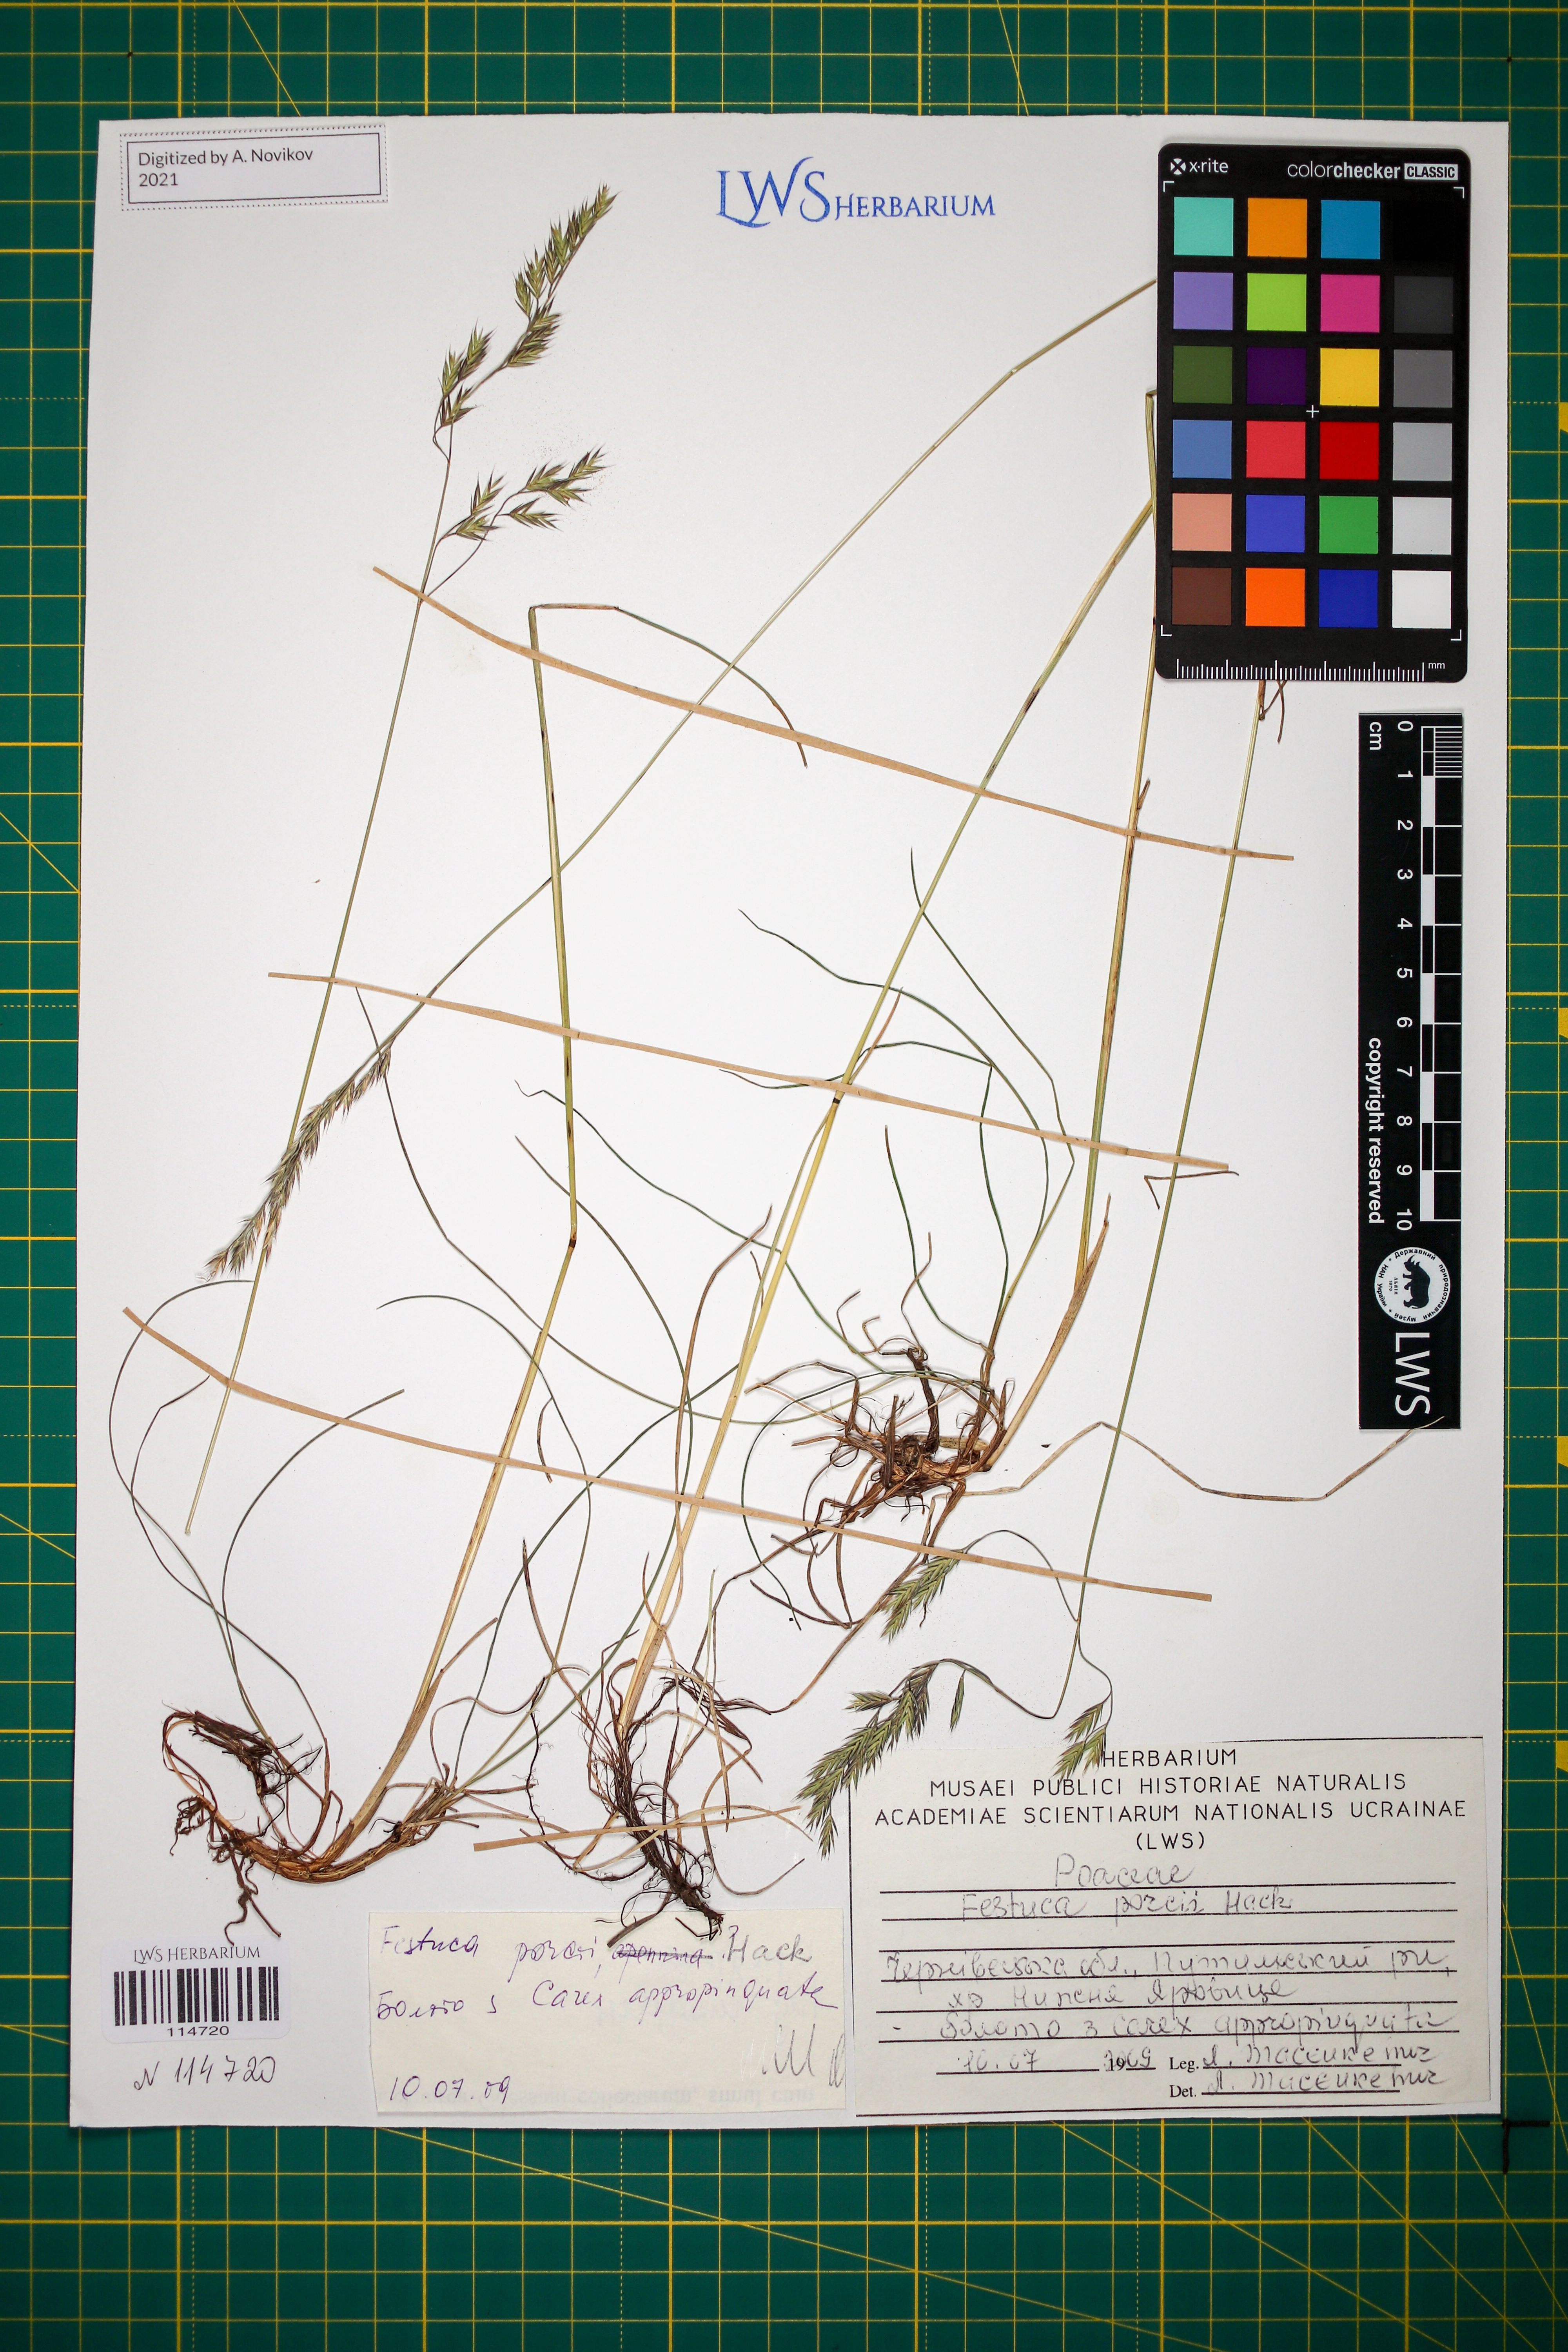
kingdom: Plantae
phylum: Tracheophyta
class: Liliopsida
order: Poales
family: Poaceae
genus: Festuca
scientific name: Festuca porcii
